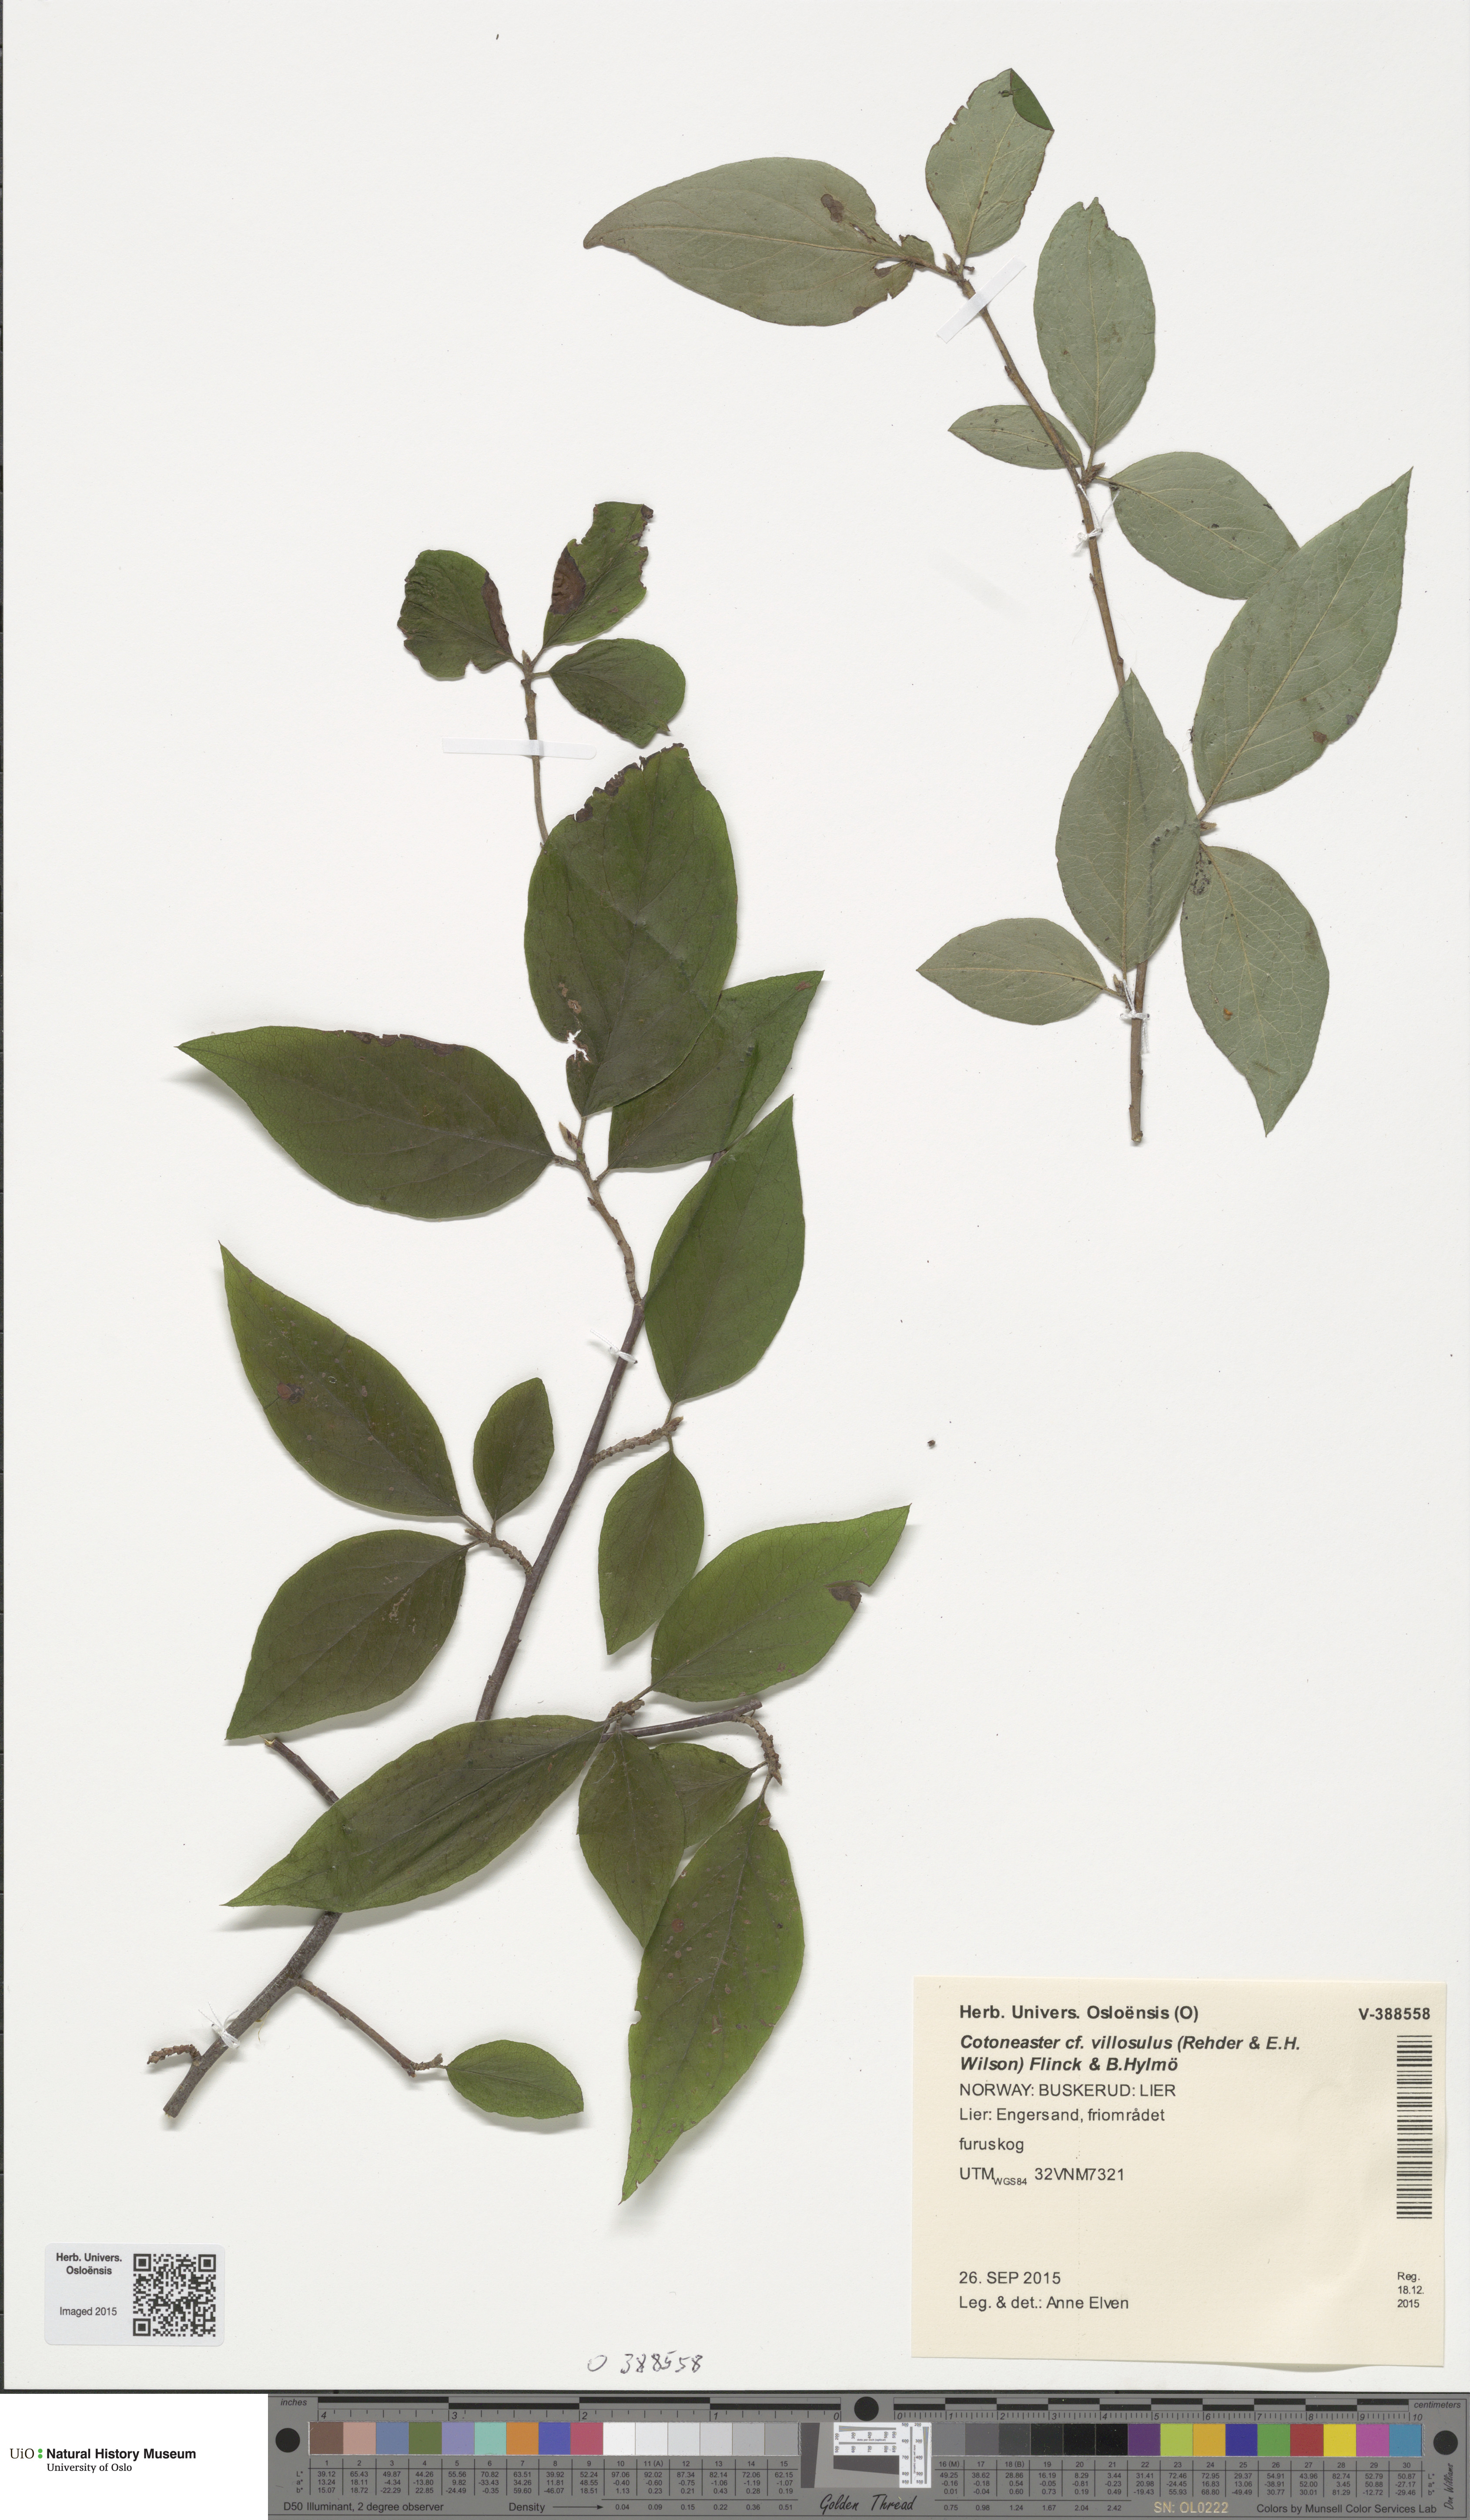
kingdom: Plantae
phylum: Tracheophyta
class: Magnoliopsida
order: Rosales
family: Rosaceae
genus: Cotoneaster
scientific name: Cotoneaster ambiguus
